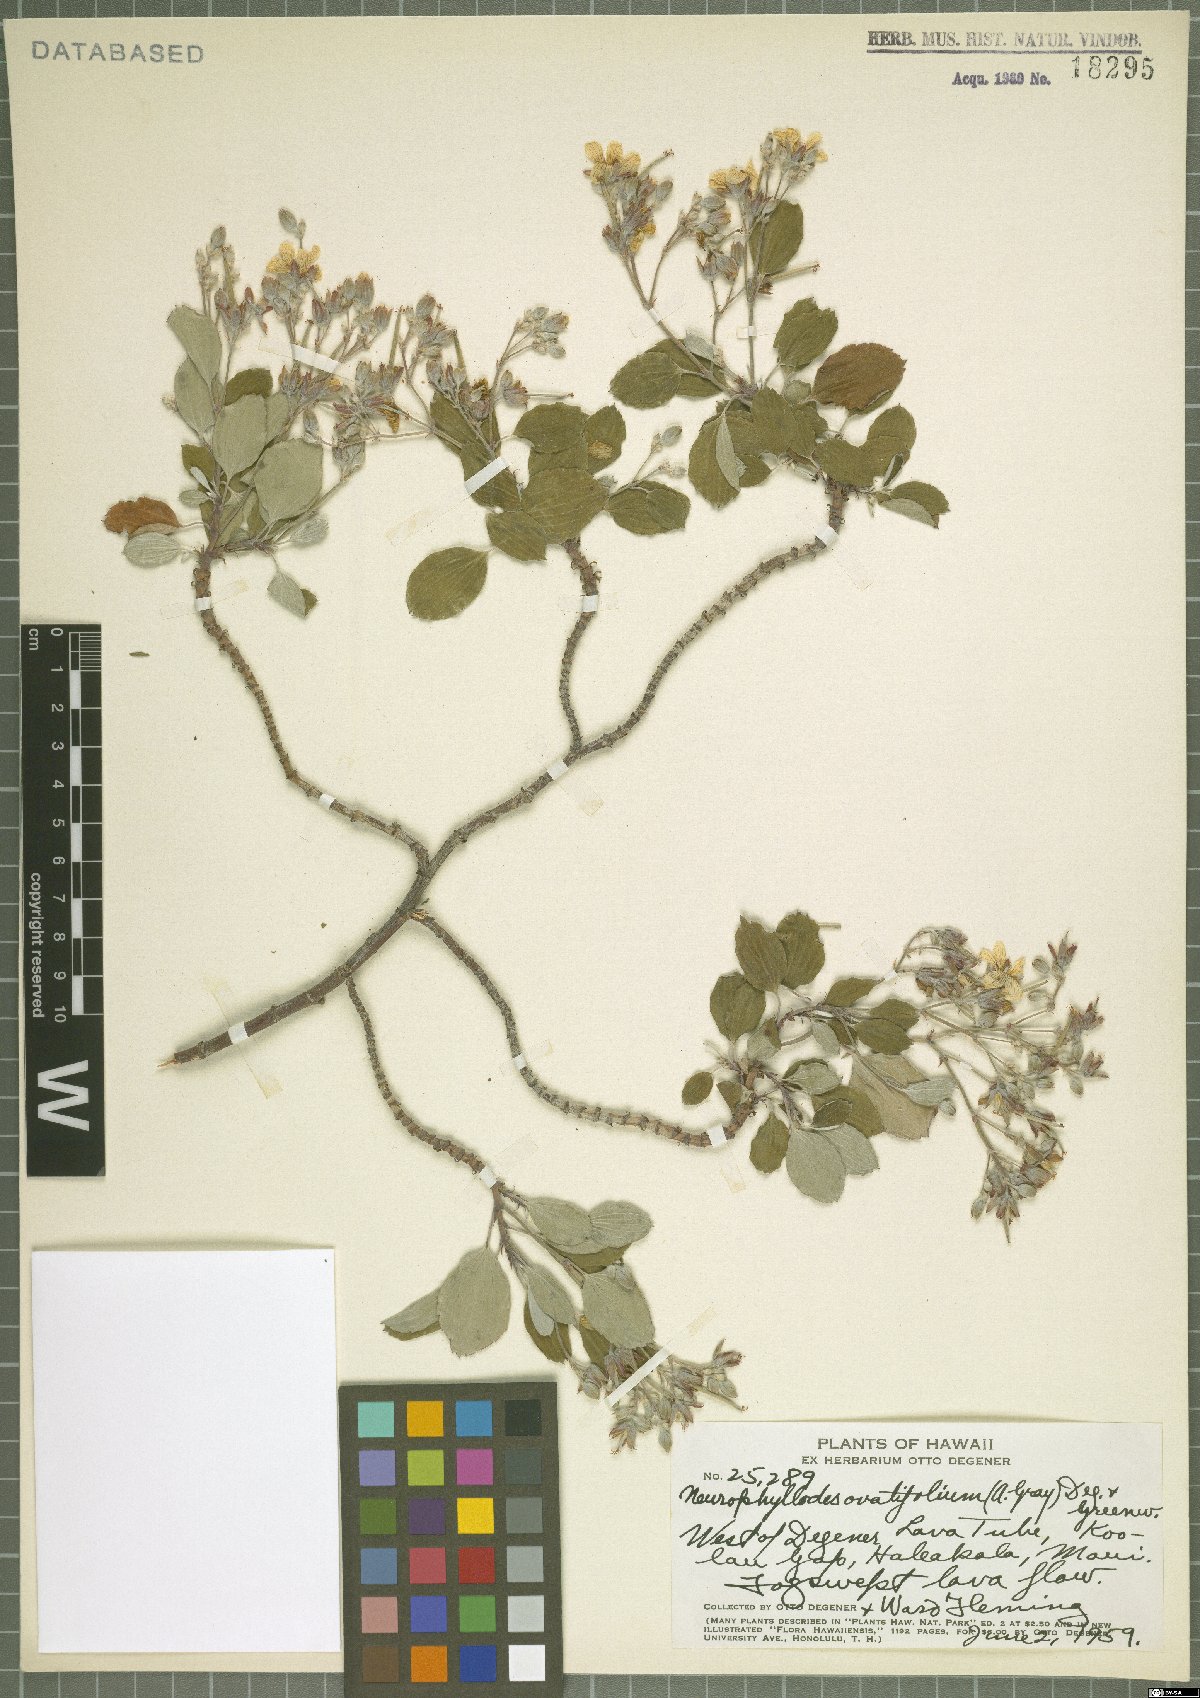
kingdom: Plantae
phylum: Tracheophyta
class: Magnoliopsida
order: Geraniales
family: Geraniaceae
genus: Geranium
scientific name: Geranium multiflorum
